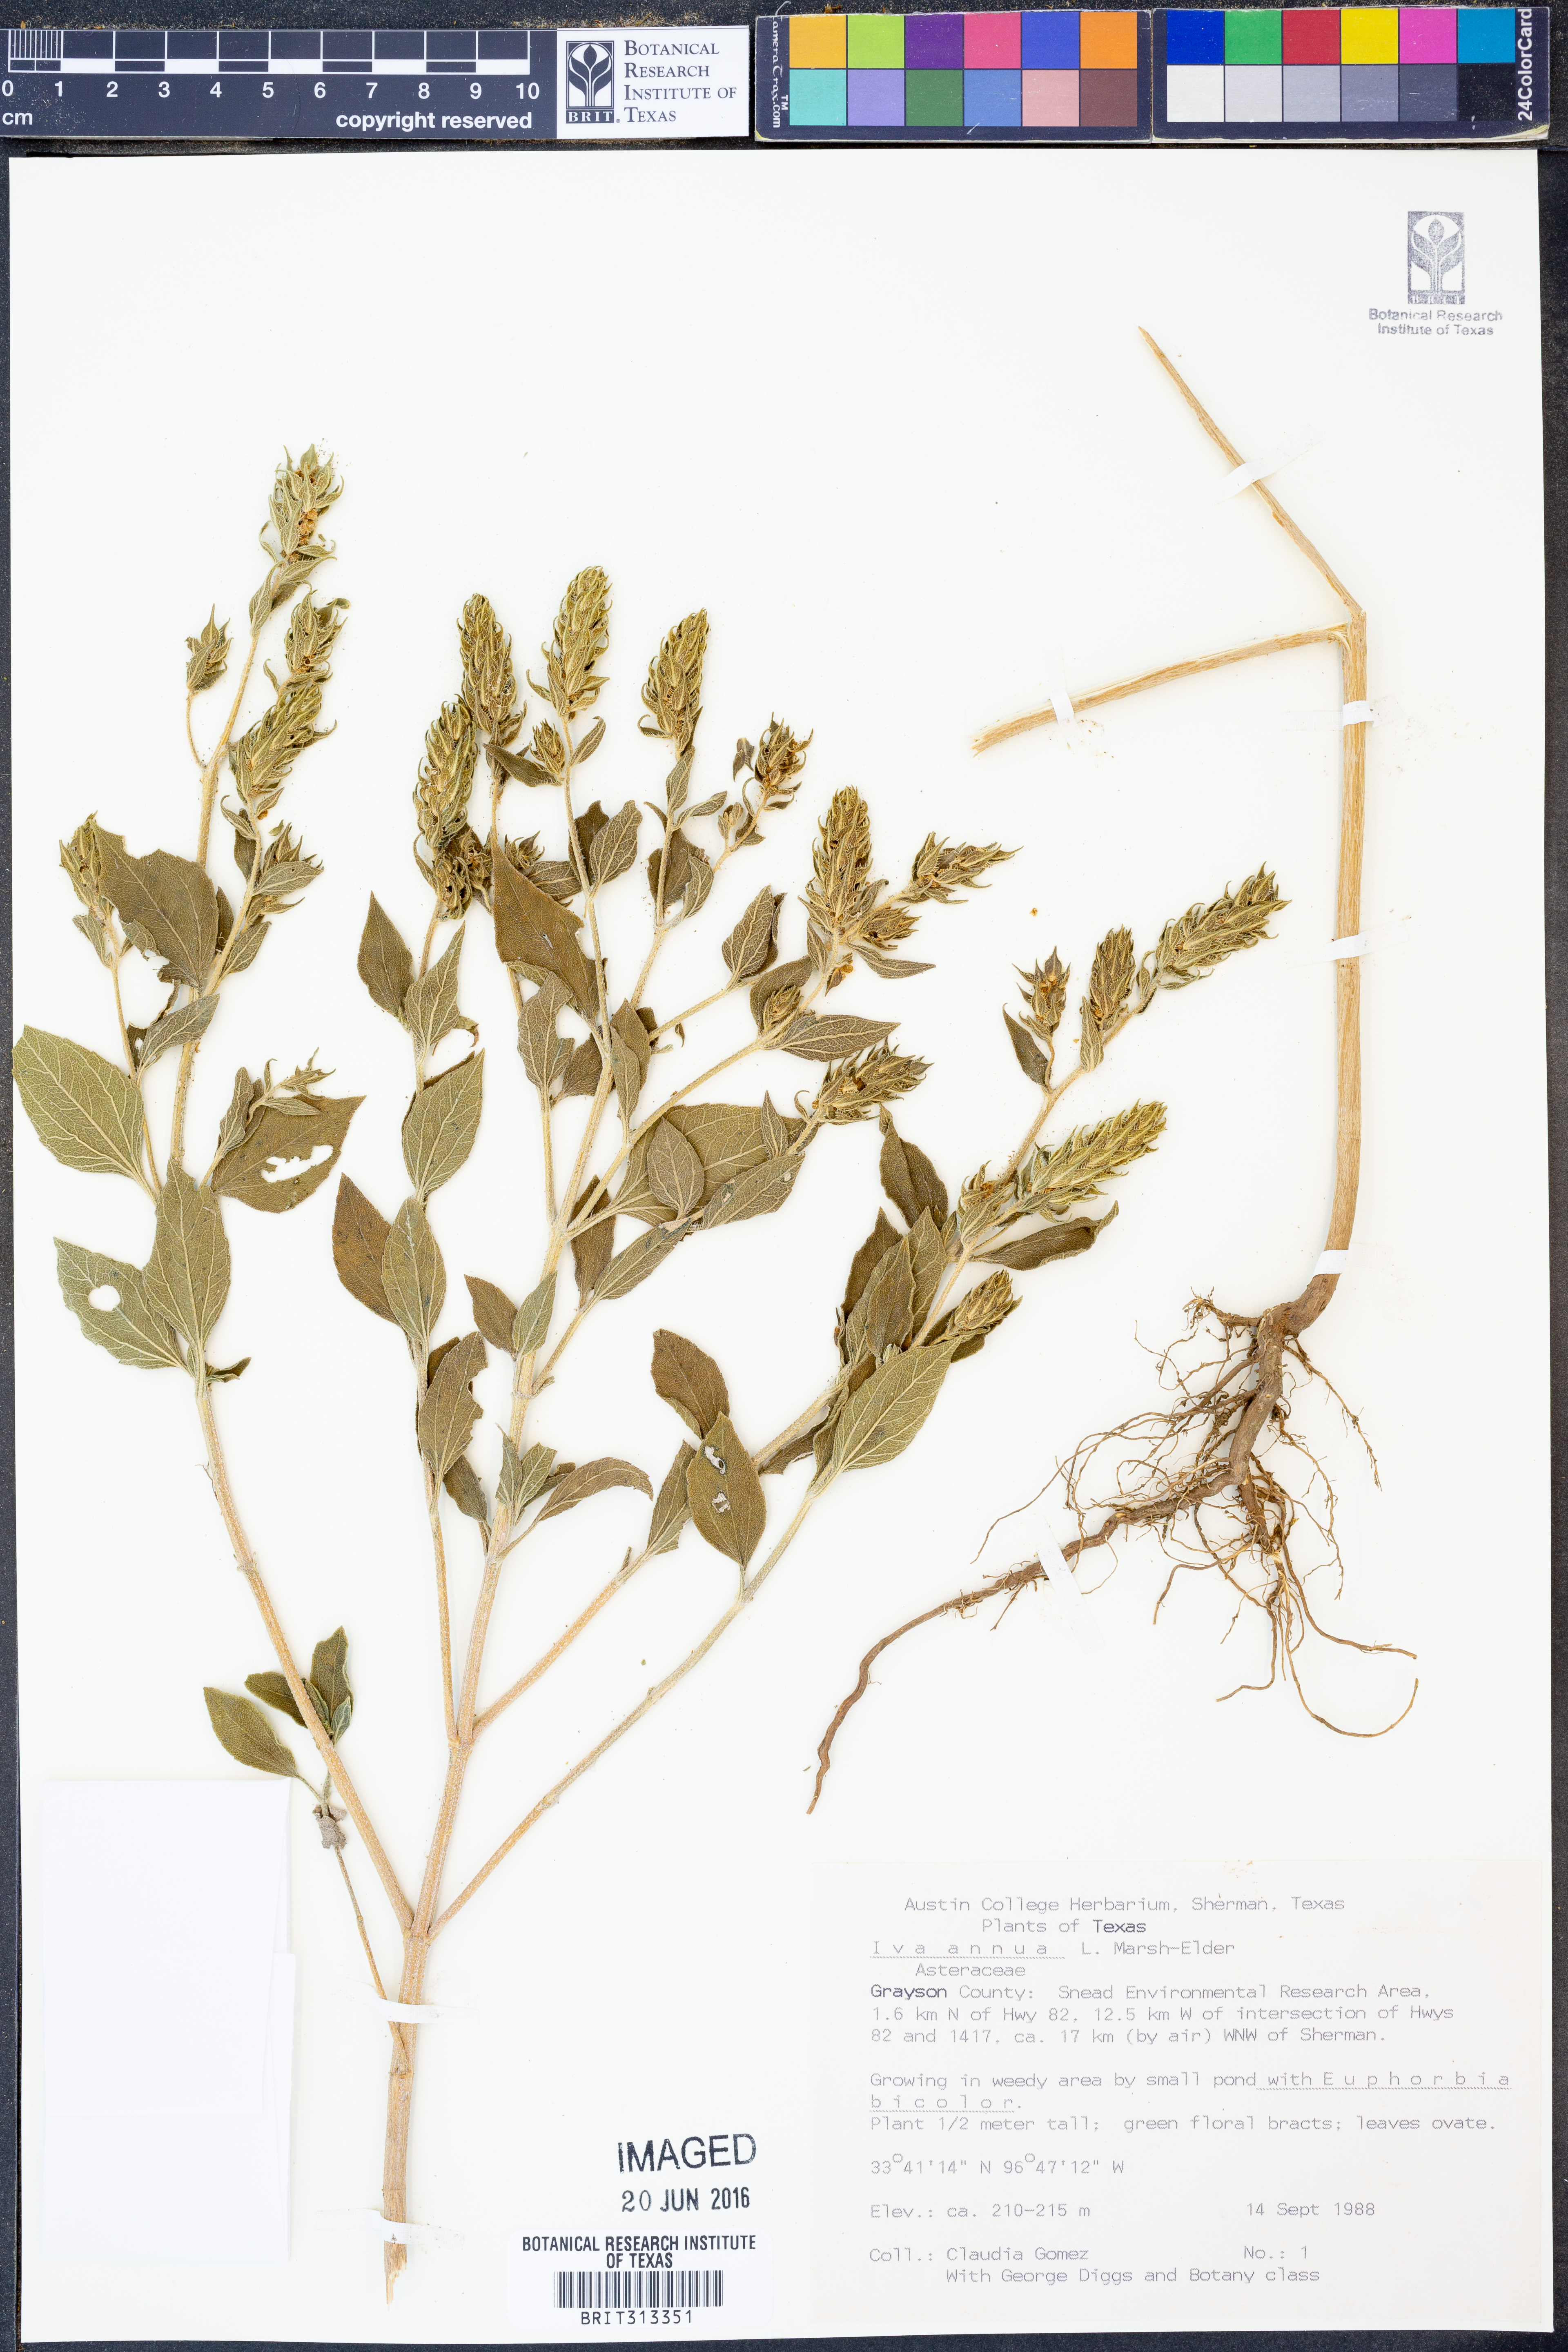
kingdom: Plantae
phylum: Tracheophyta
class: Magnoliopsida
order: Asterales
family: Asteraceae
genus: Iva
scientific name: Iva annua
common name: Marsh-elder
